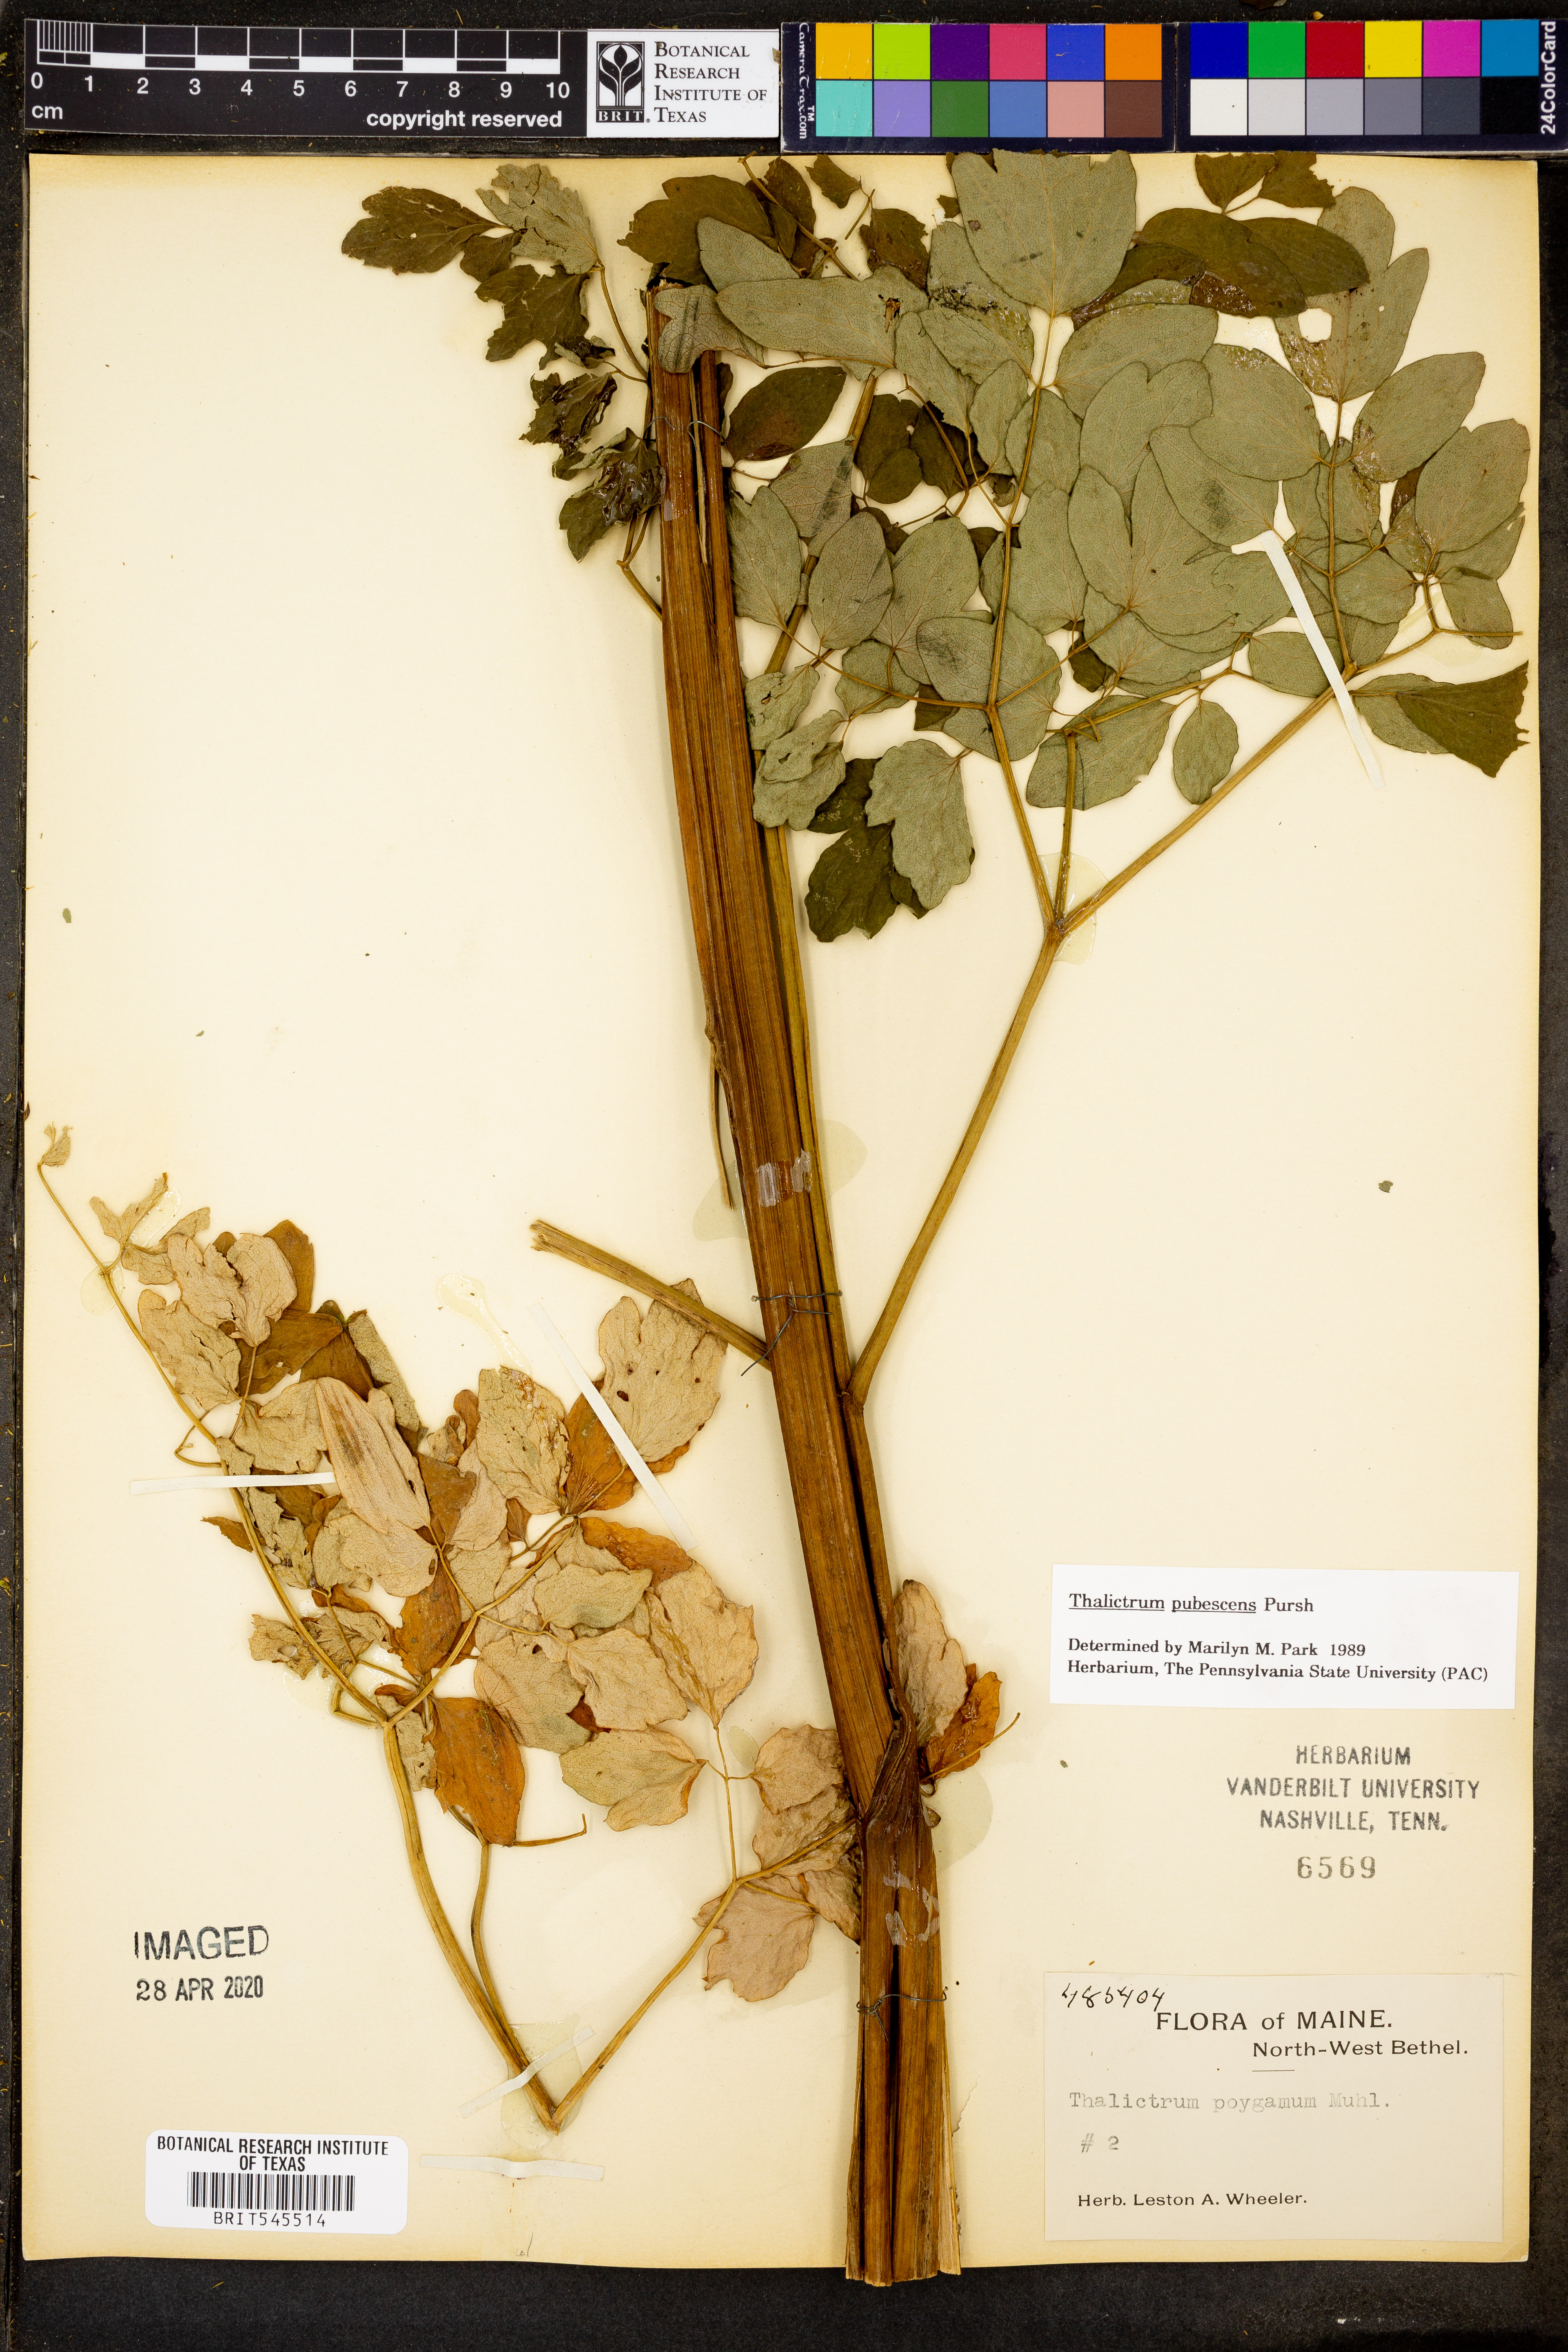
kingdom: Plantae
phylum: Tracheophyta
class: Magnoliopsida
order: Ranunculales
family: Ranunculaceae
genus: Thalictrum
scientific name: Thalictrum pubescens
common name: King-of-the-meadow
